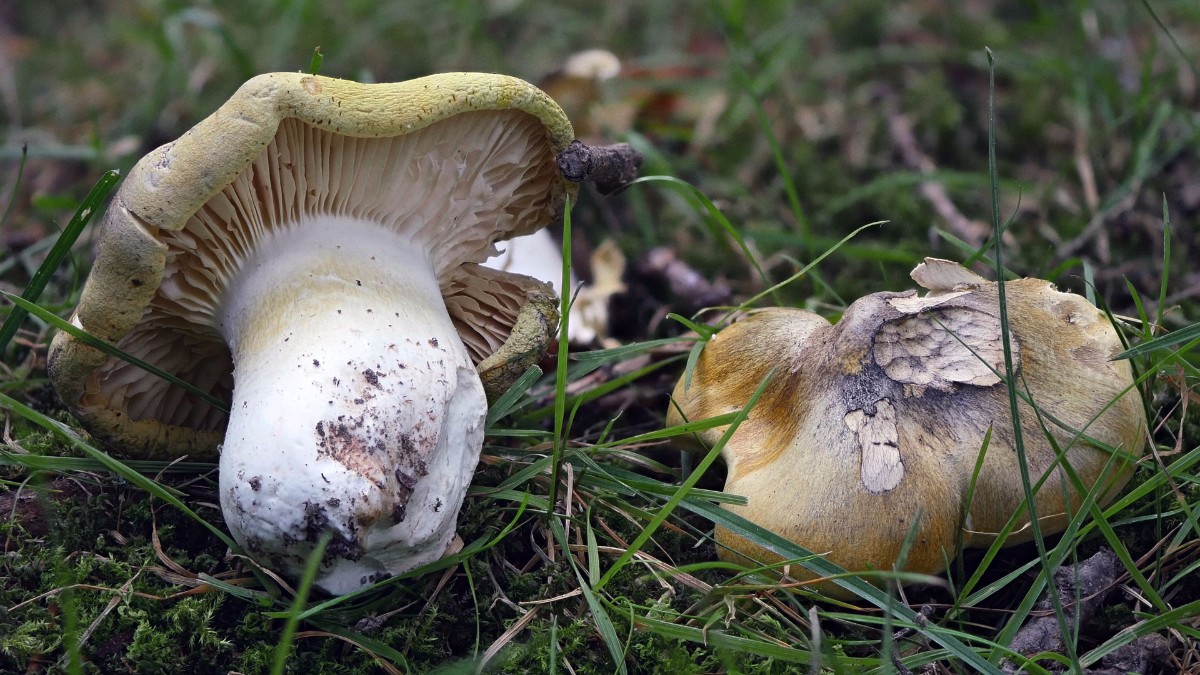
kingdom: Fungi
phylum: Basidiomycota
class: Agaricomycetes
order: Agaricales
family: Tricholomataceae
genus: Tricholoma
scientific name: Tricholoma sejunctum
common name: grøngul ridderhat
